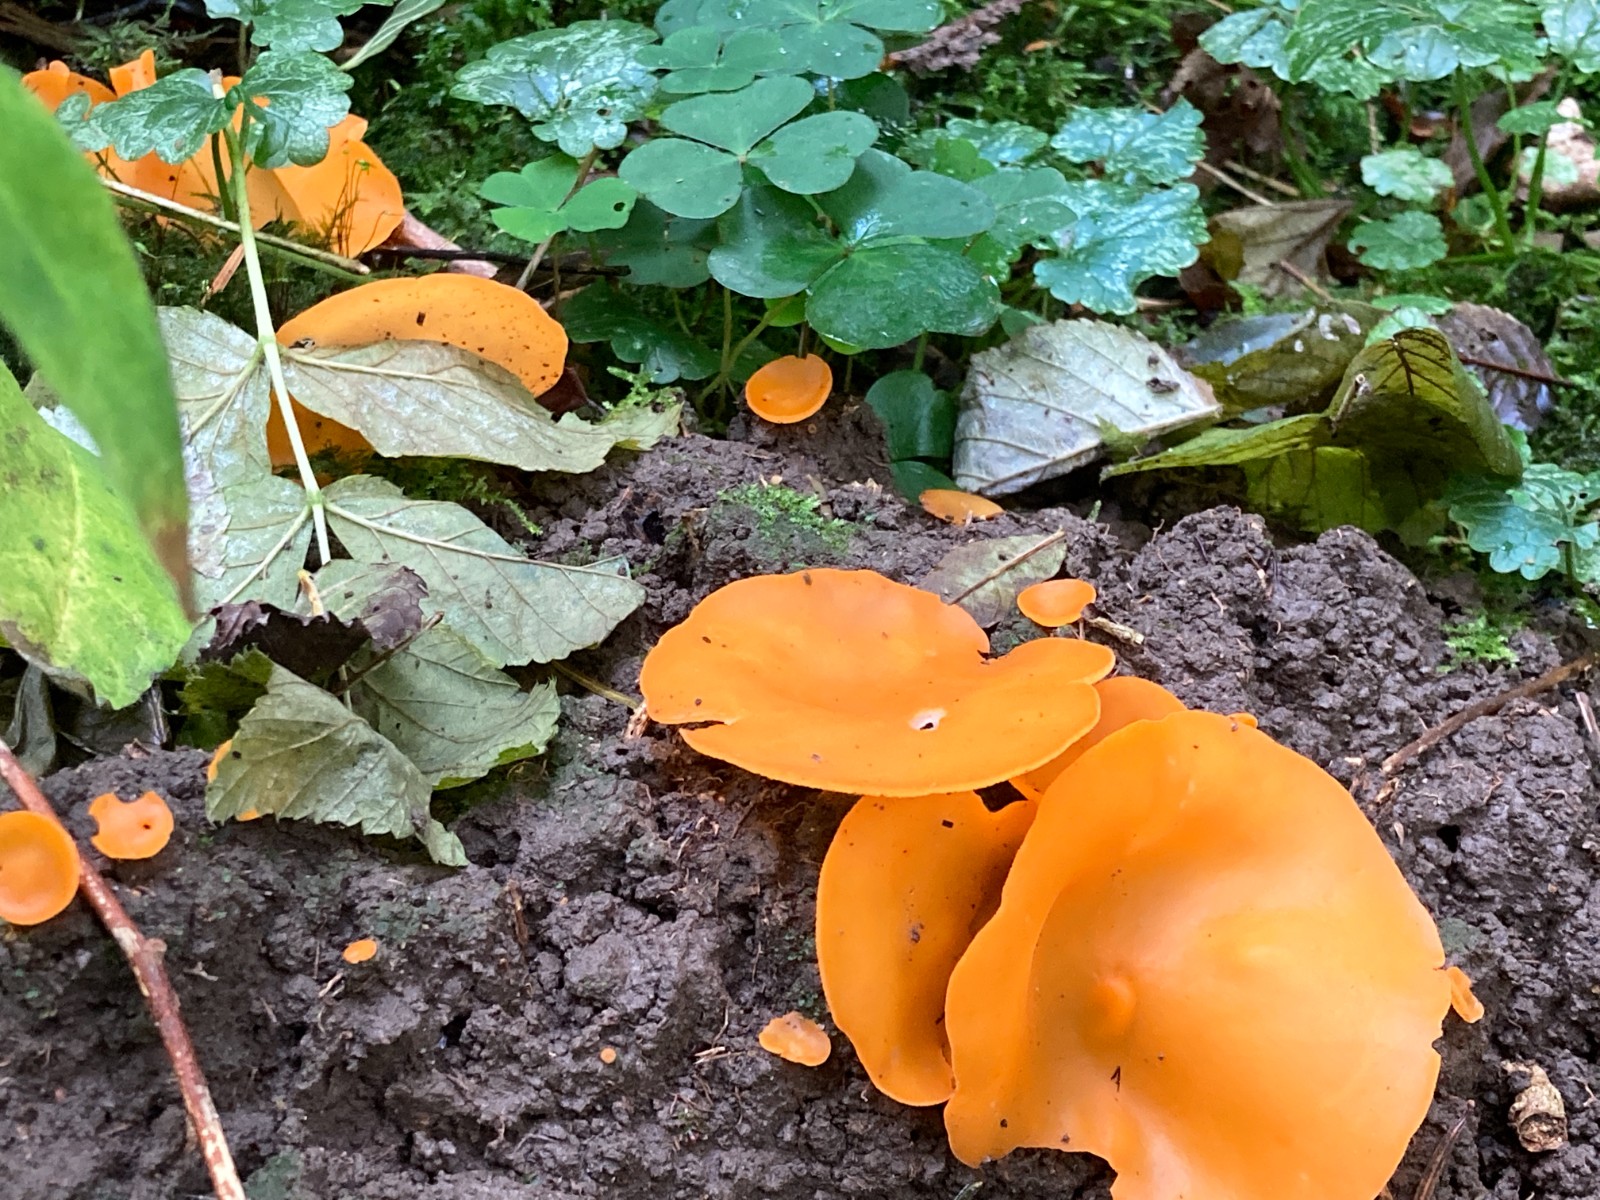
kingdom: Fungi
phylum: Ascomycota
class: Pezizomycetes
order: Pezizales
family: Pyronemataceae
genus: Aleuria
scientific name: Aleuria aurantia
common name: almindelig orangebæger
